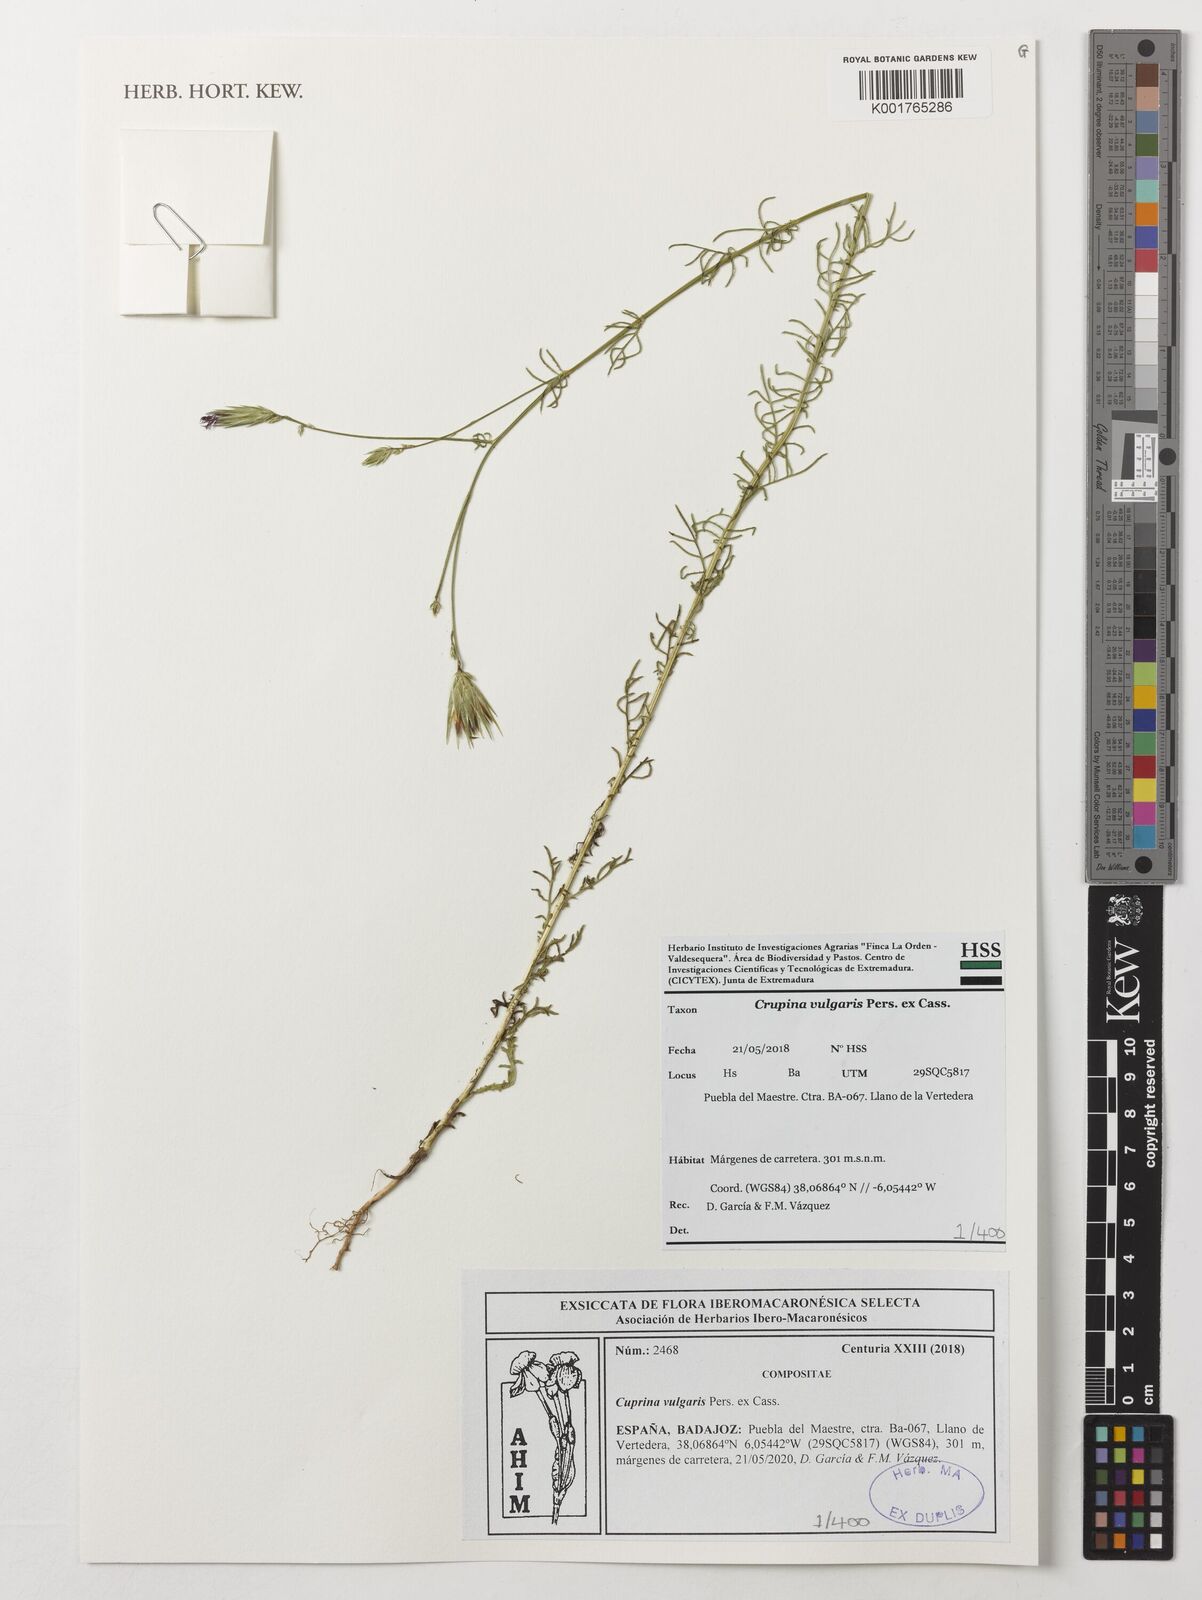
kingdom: Plantae
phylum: Tracheophyta
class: Magnoliopsida
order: Asterales
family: Asteraceae
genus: Crupina
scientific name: Crupina vulgaris
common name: Common crupina
